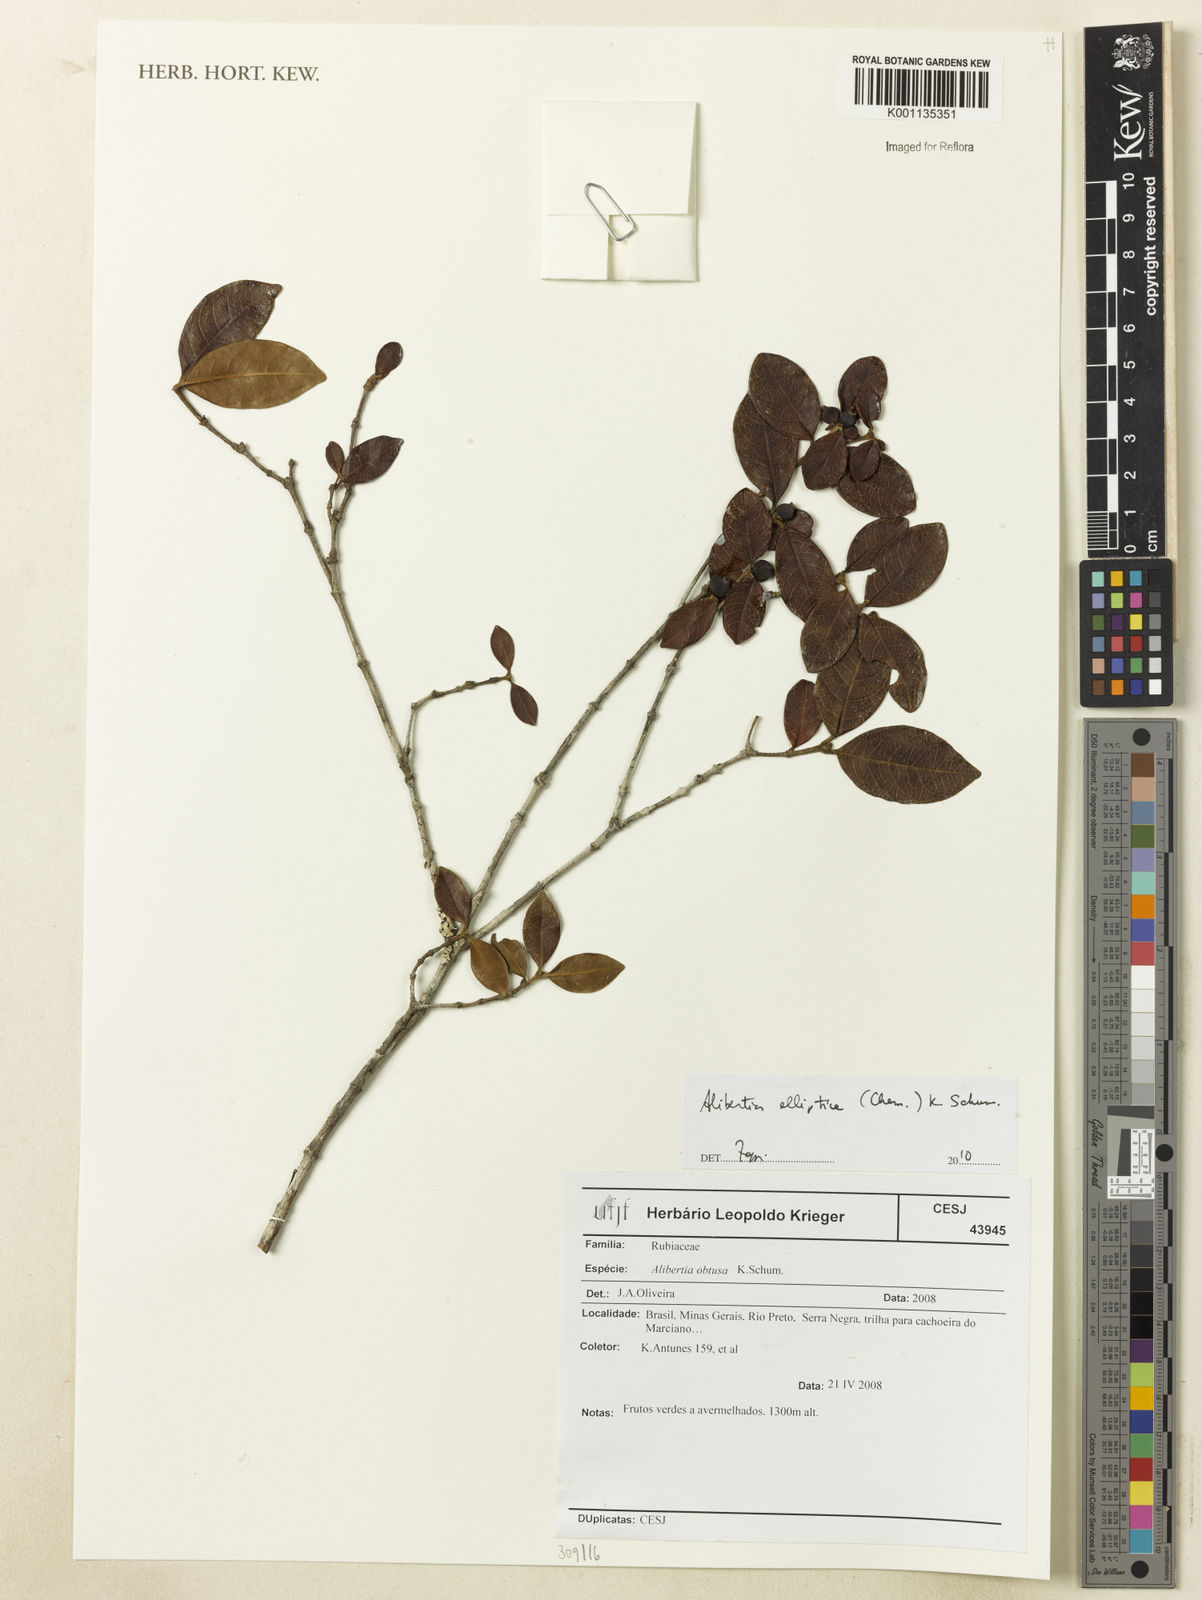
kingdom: Plantae
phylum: Tracheophyta
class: Magnoliopsida
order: Gentianales
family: Rubiaceae
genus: Cordiera
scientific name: Cordiera elliptica
